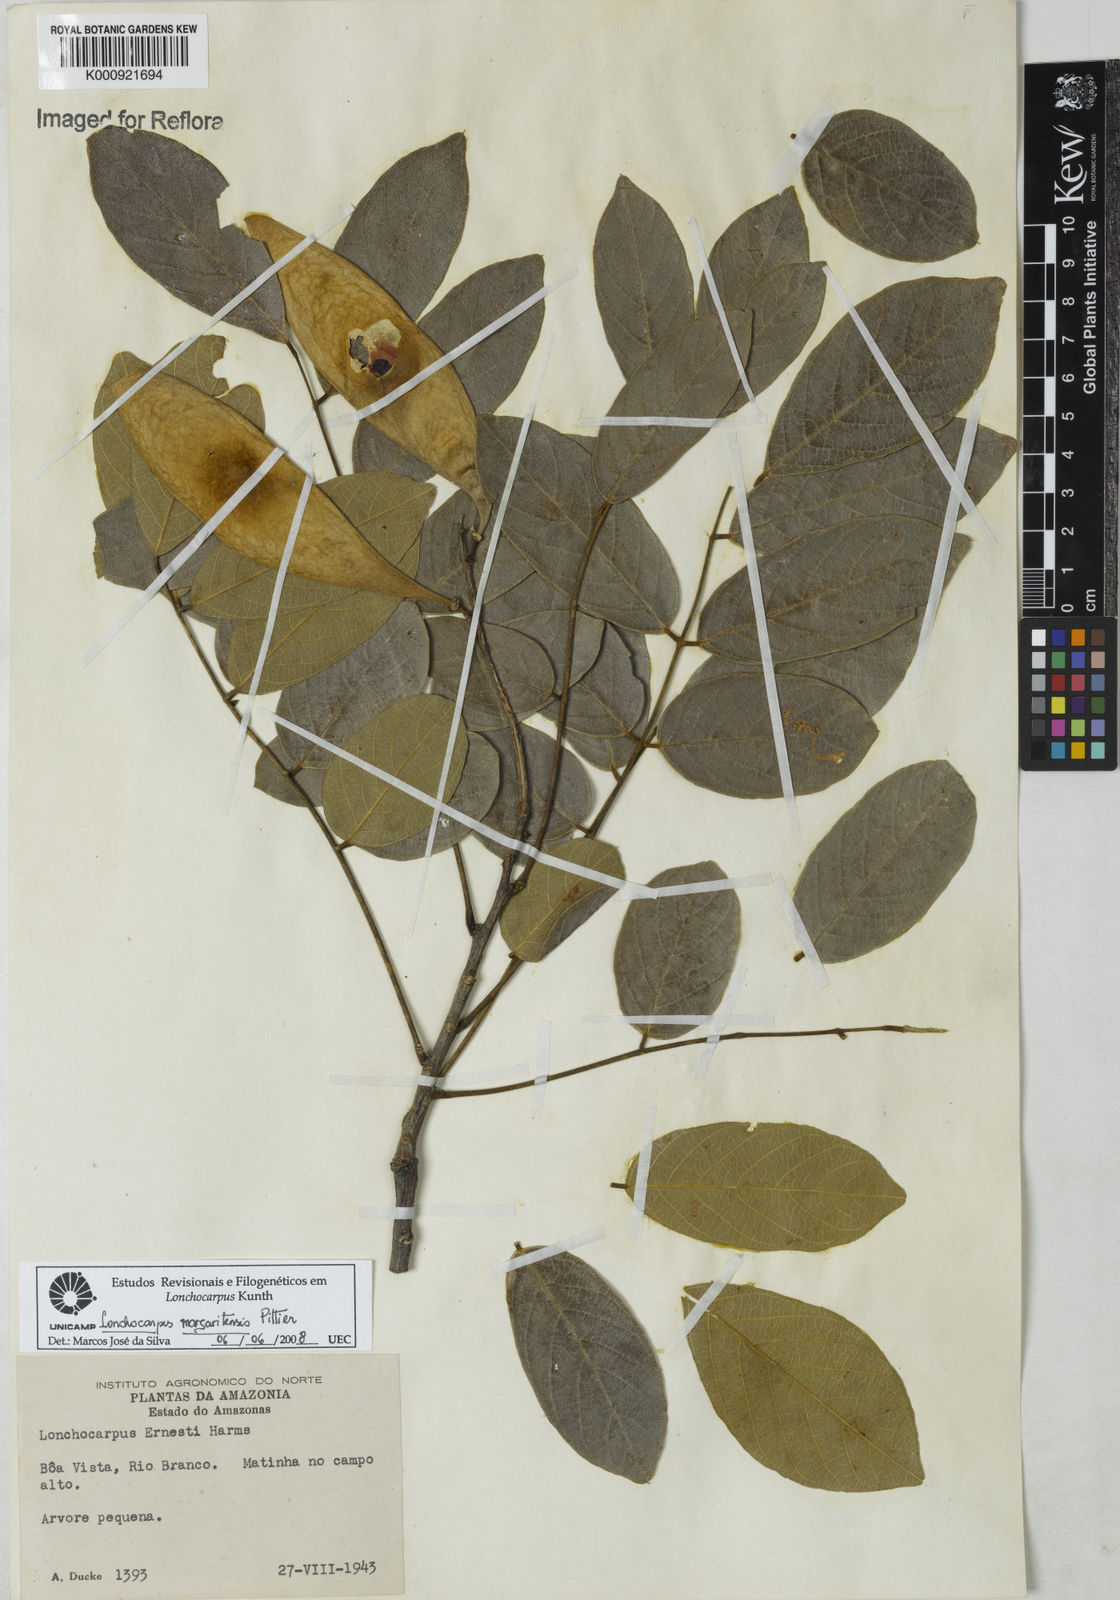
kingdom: Plantae
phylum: Tracheophyta
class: Magnoliopsida
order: Fabales
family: Fabaceae
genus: Lonchocarpus
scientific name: Lonchocarpus hedyosmus
